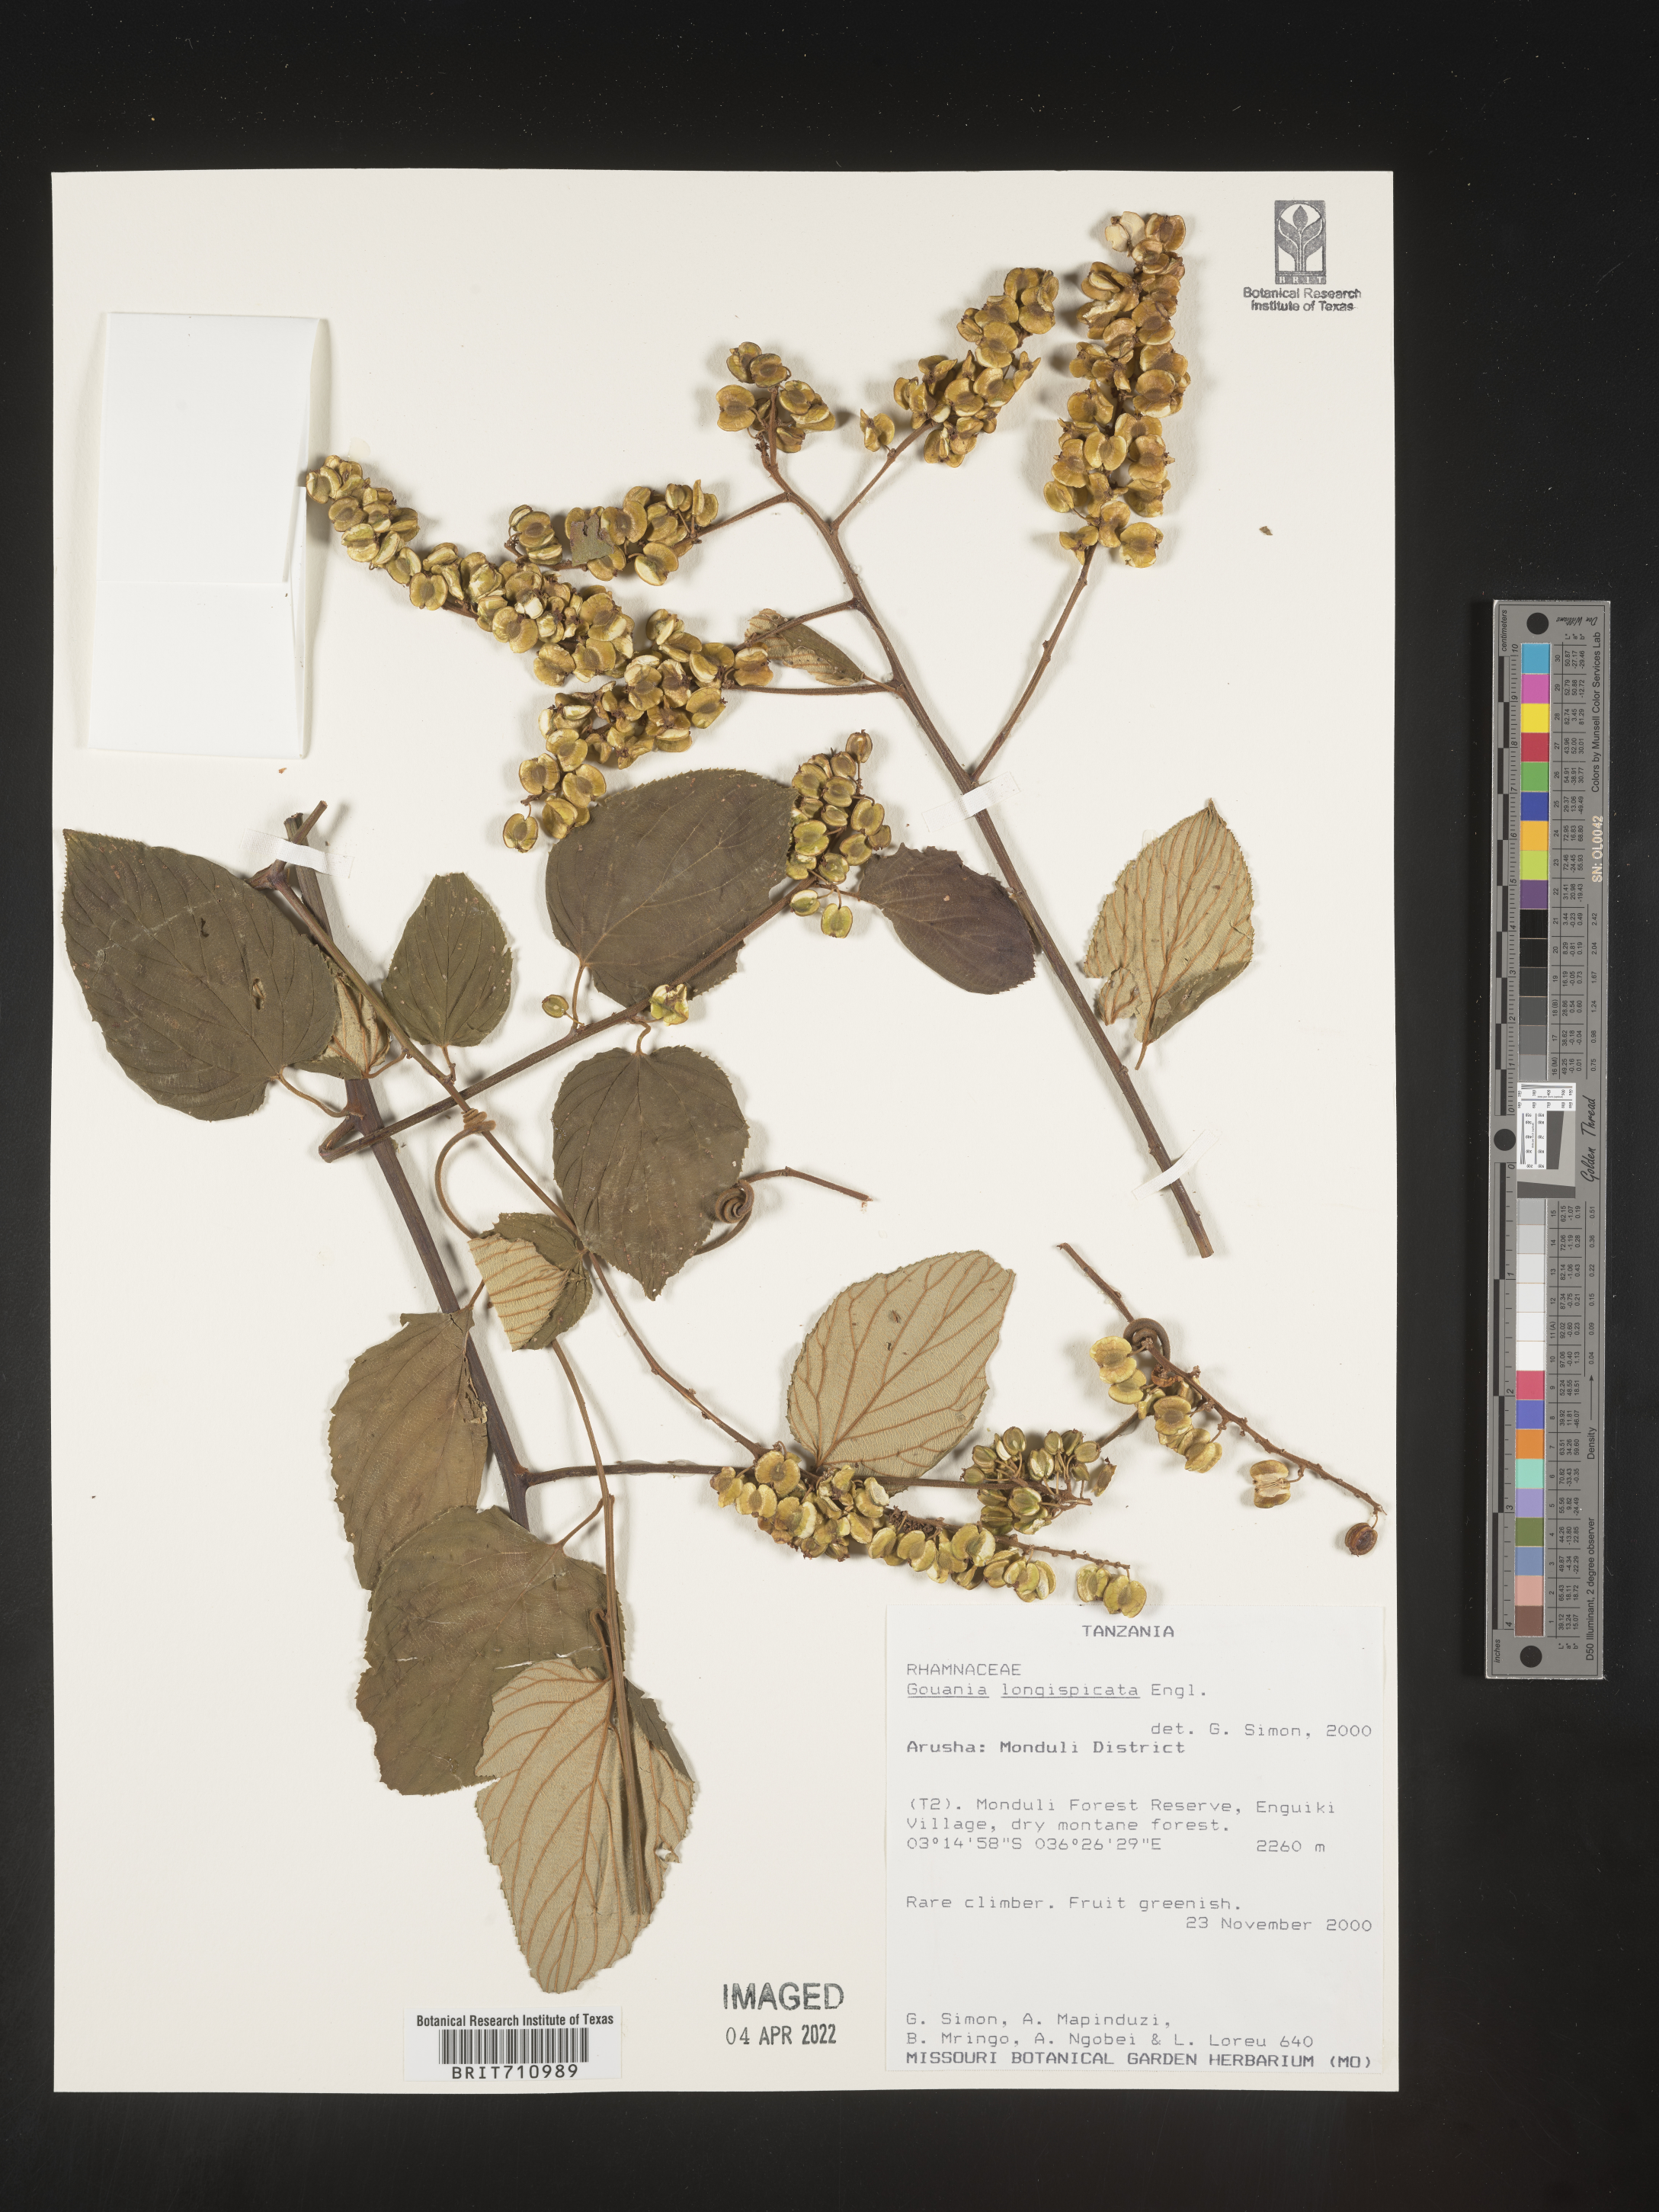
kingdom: Plantae
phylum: Tracheophyta
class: Magnoliopsida
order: Rosales
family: Rhamnaceae
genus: Gouania
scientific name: Gouania
